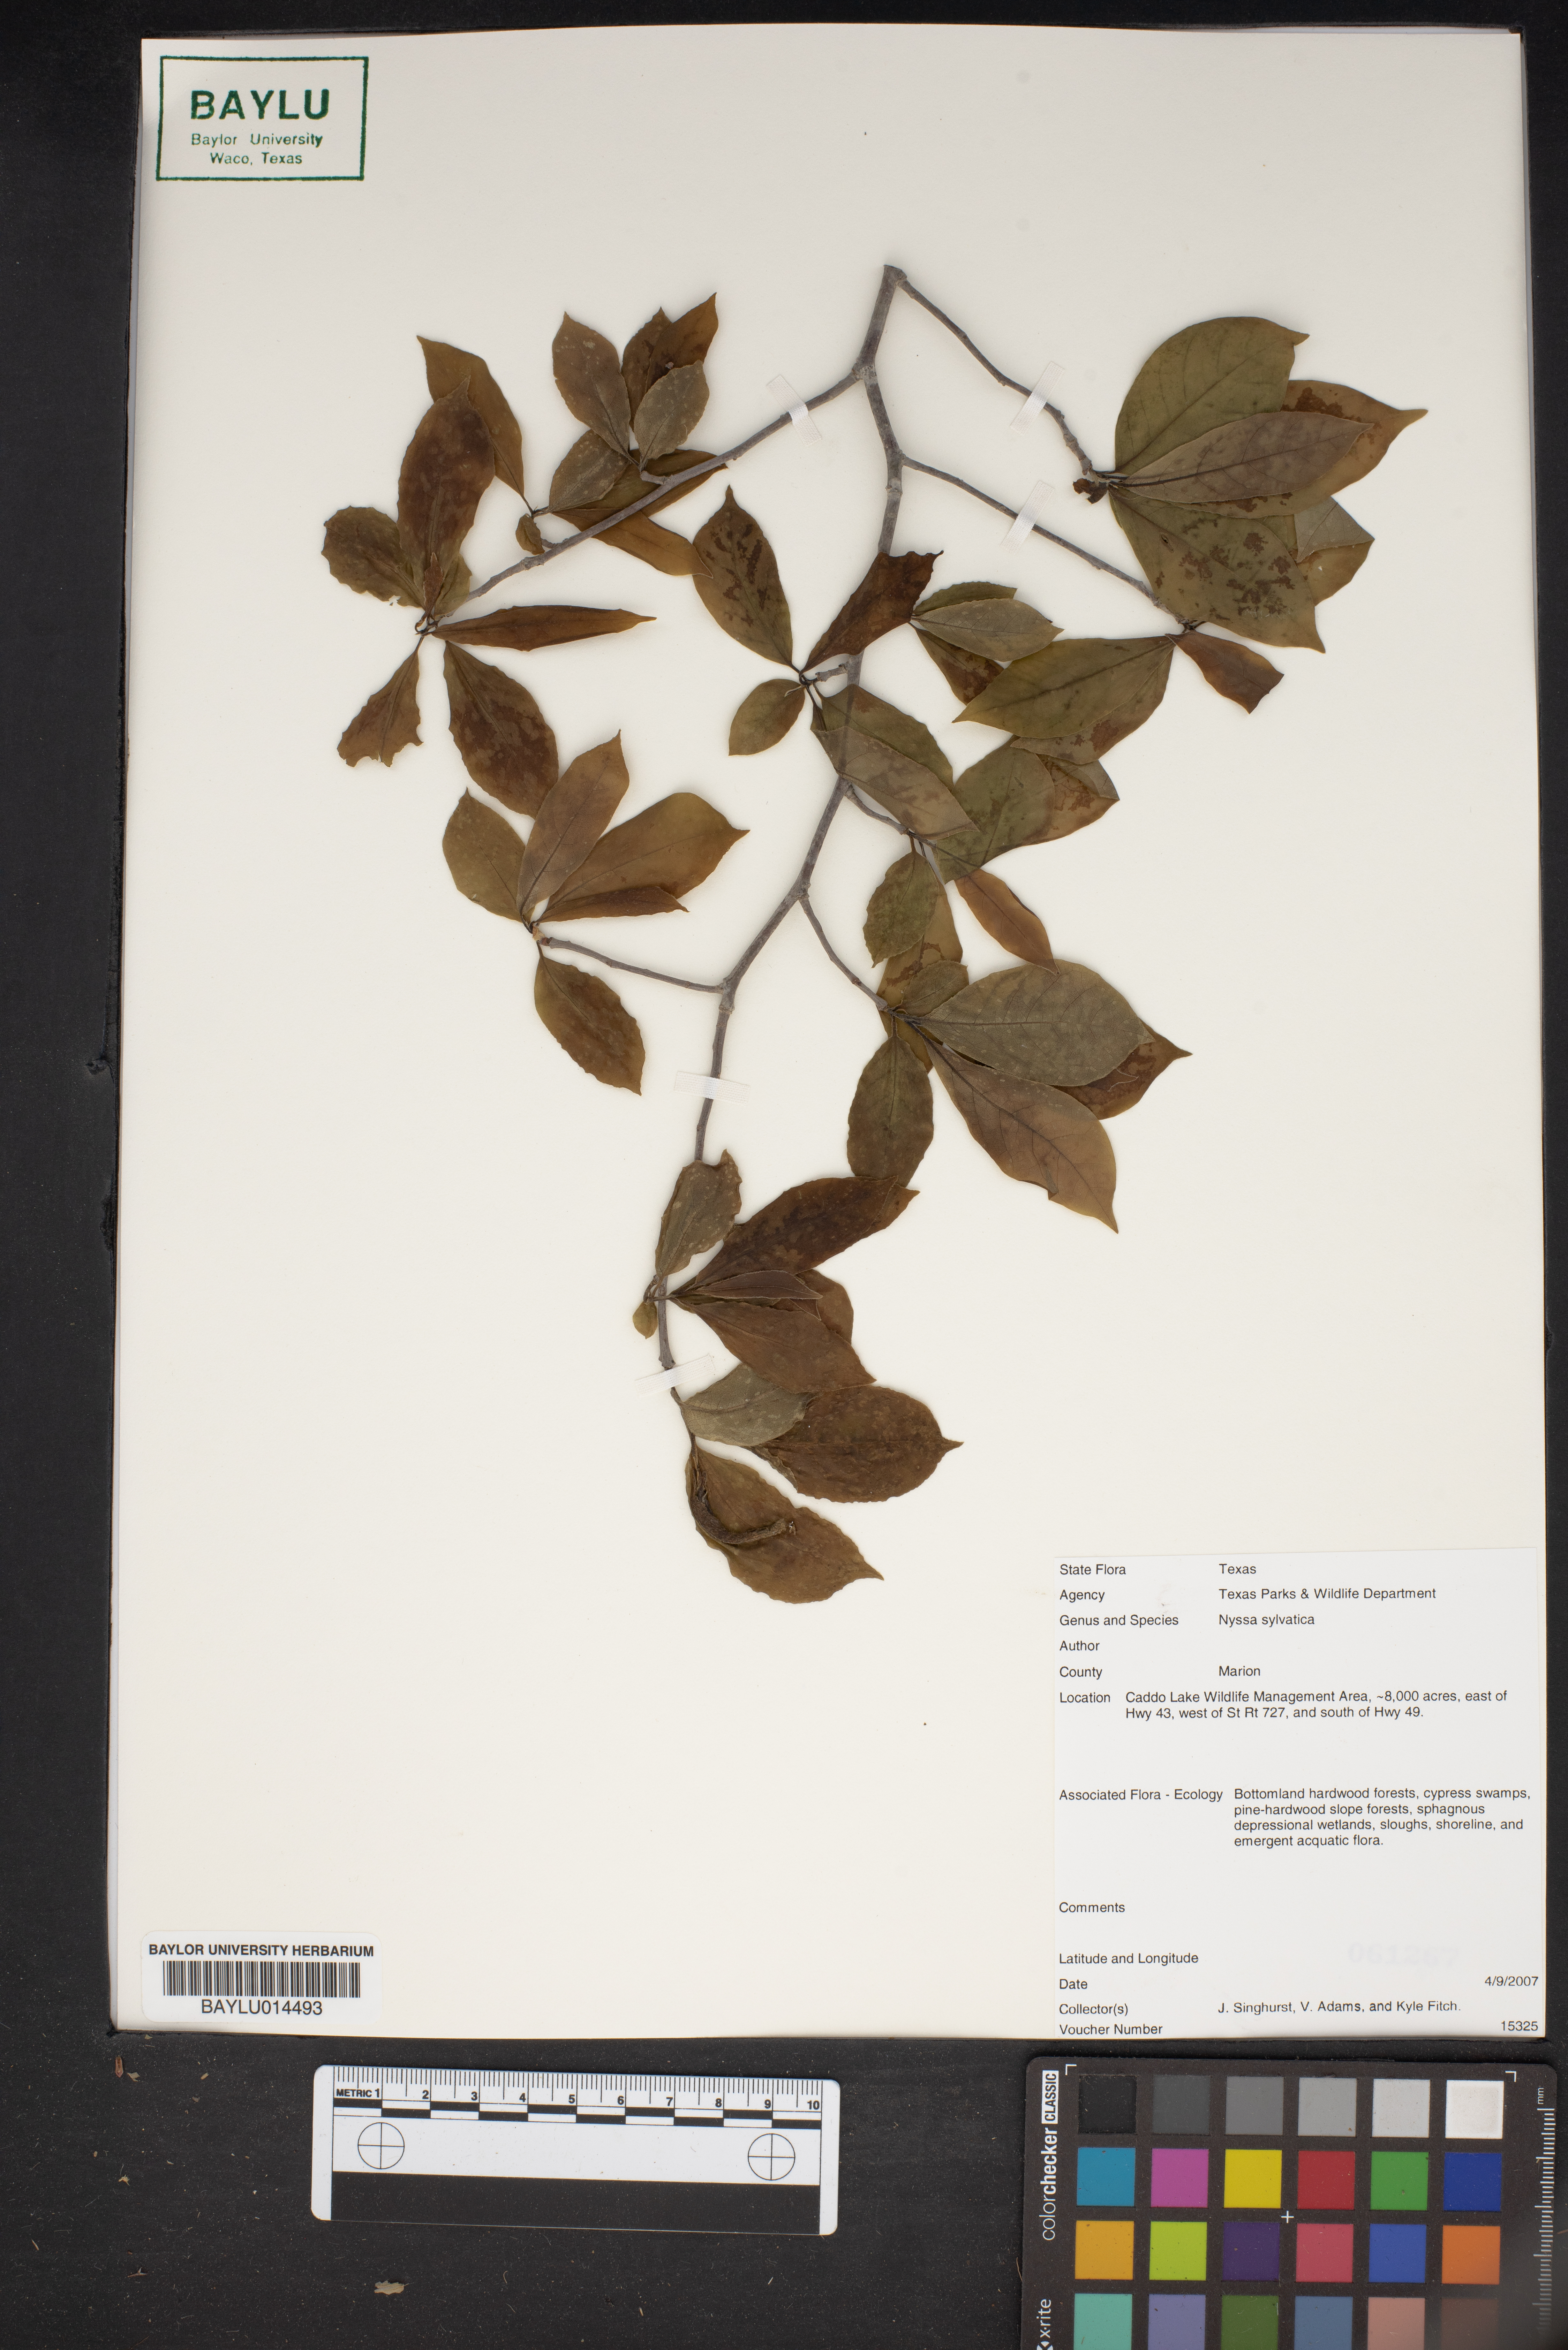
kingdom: Plantae
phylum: Tracheophyta
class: Magnoliopsida
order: Cornales
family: Nyssaceae
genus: Nyssa
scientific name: Nyssa sylvatica
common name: Black tupelo
